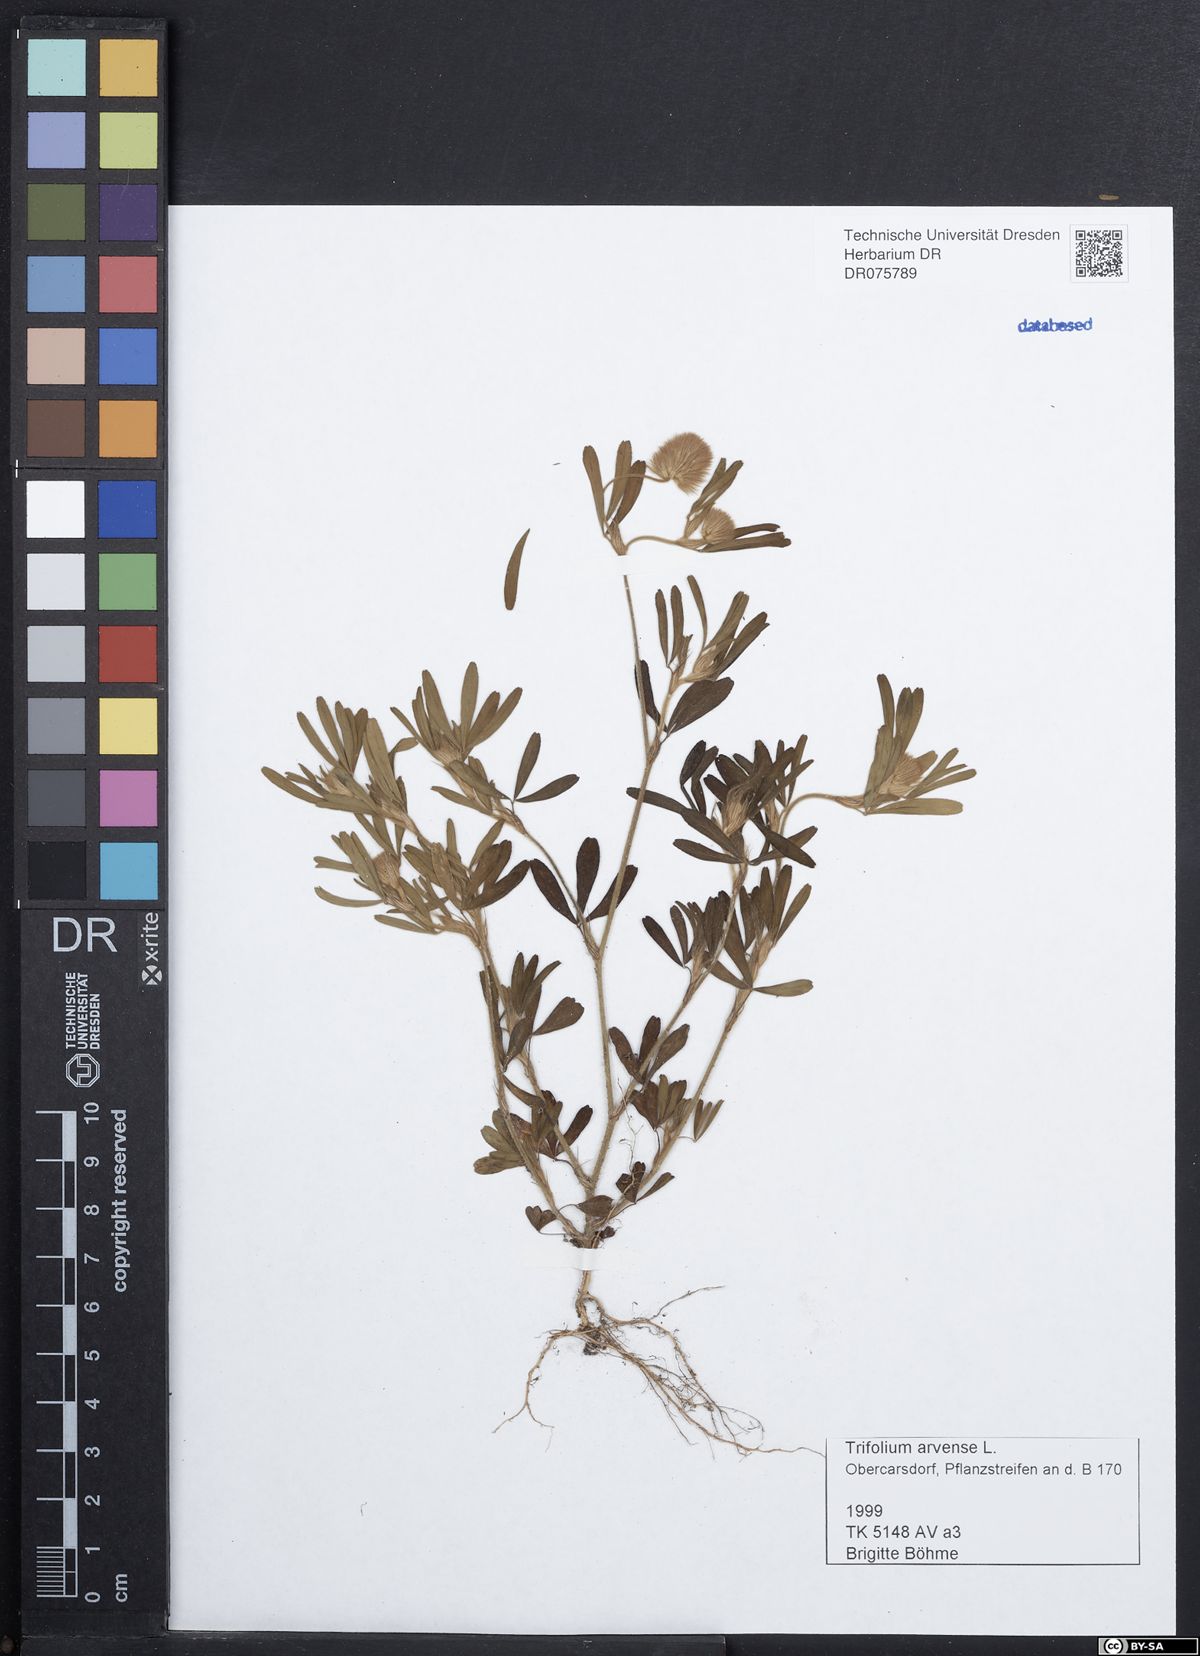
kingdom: Plantae
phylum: Tracheophyta
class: Magnoliopsida
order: Fabales
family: Fabaceae
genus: Trifolium
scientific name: Trifolium arvense
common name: Hare's-foot clover
